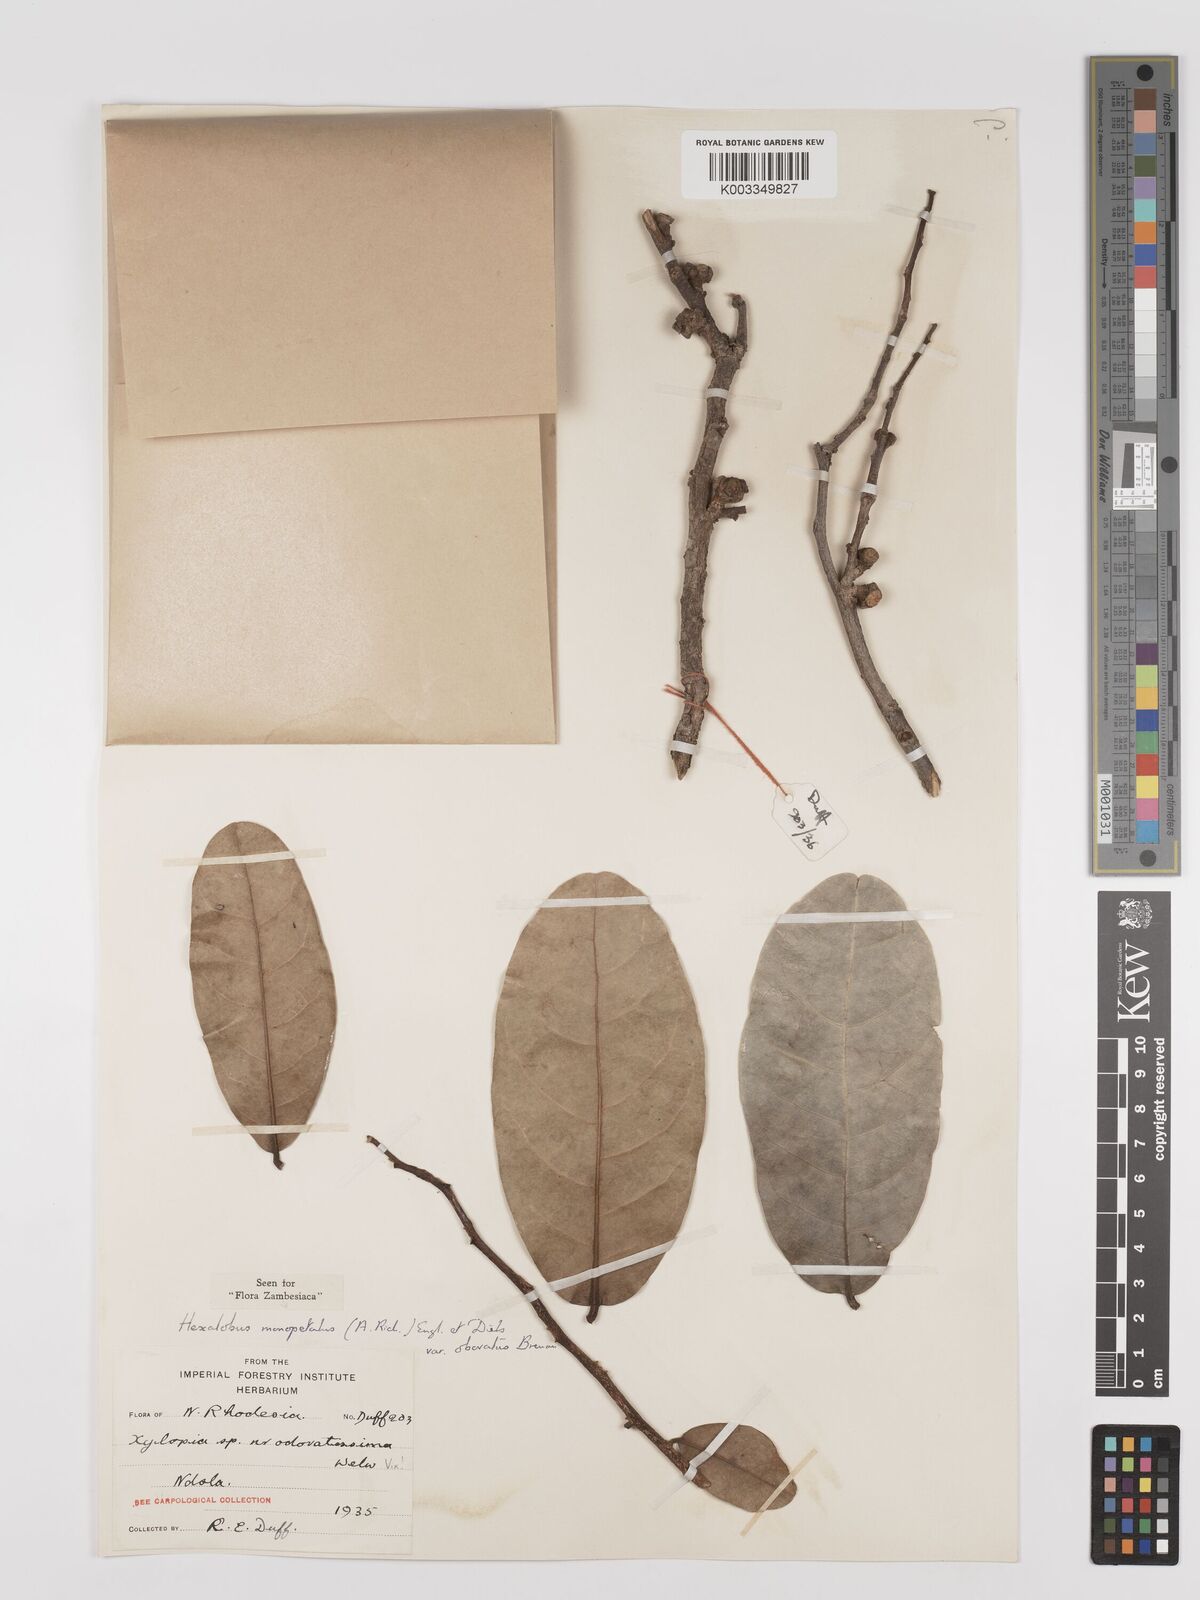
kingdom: Plantae
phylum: Tracheophyta
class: Magnoliopsida
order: Magnoliales
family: Annonaceae
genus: Hexalobus
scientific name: Hexalobus monopetalus
